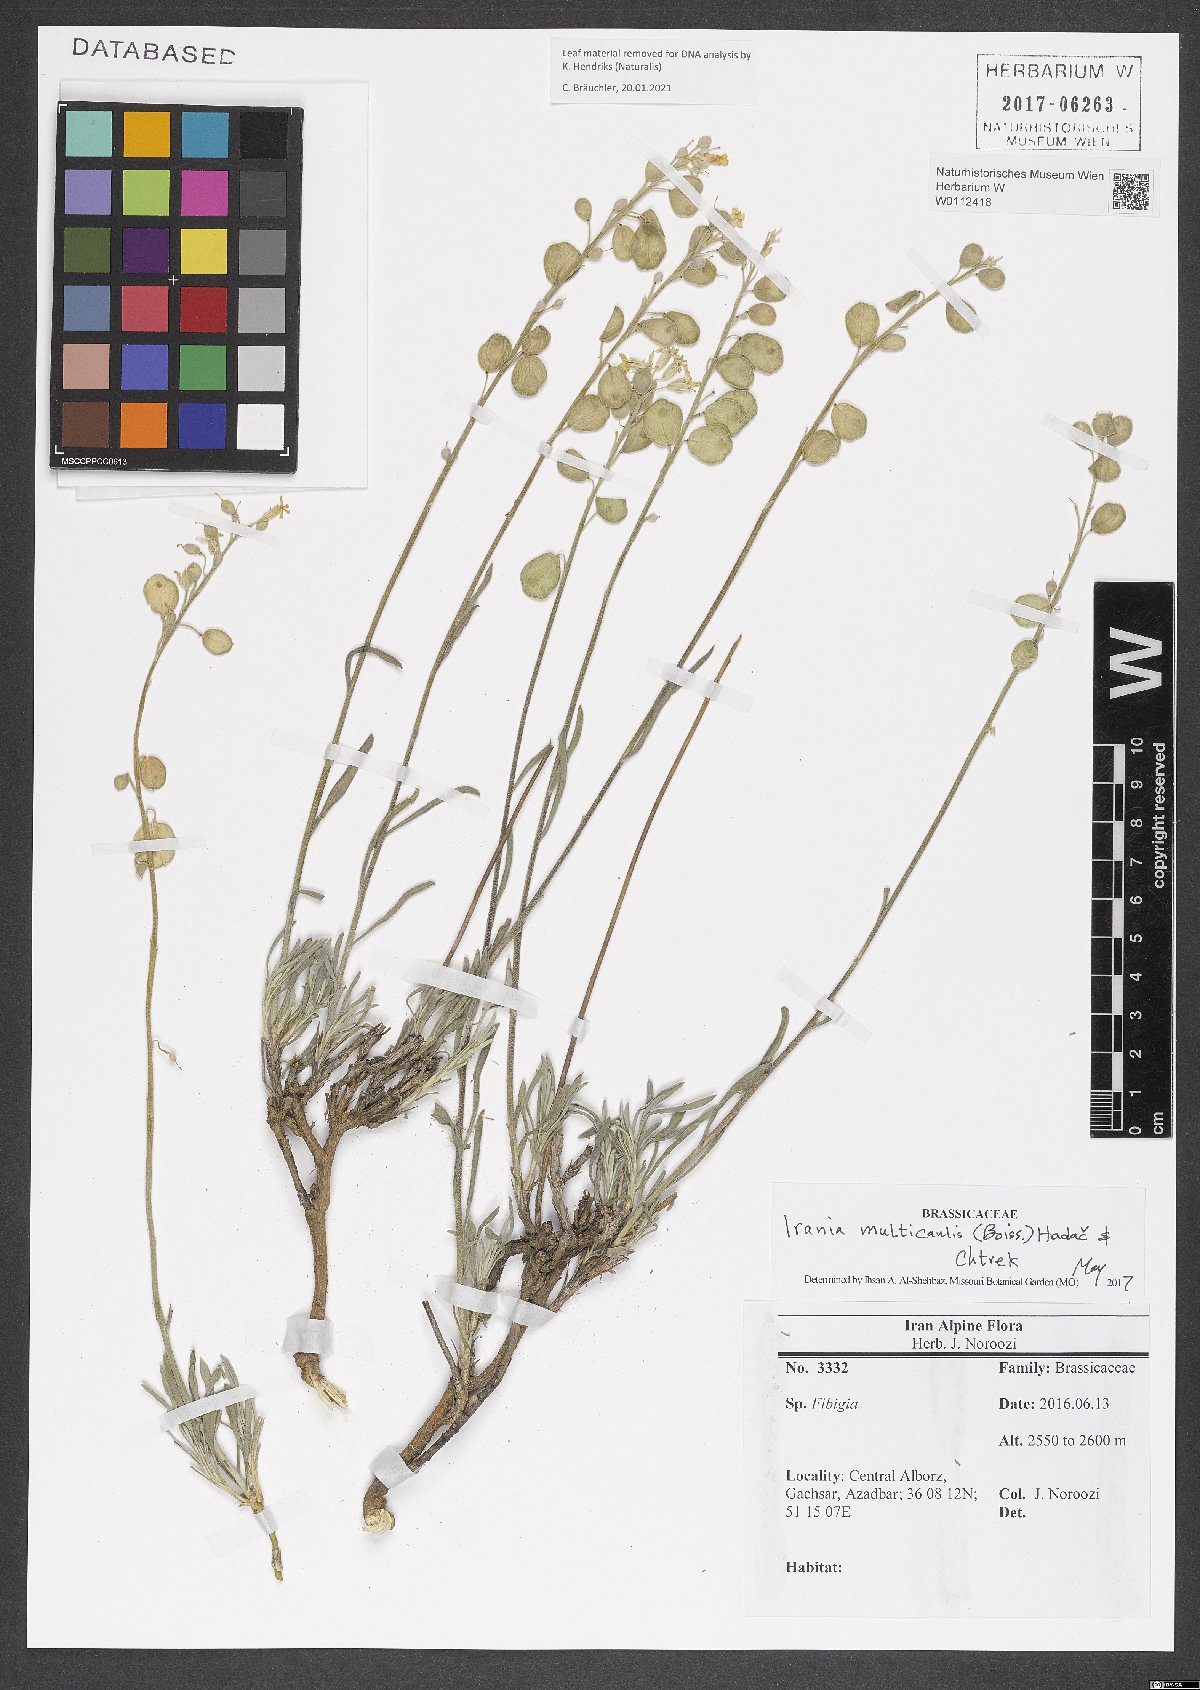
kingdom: Plantae
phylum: Tracheophyta
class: Magnoliopsida
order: Brassicales
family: Brassicaceae
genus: Irania
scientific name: Irania multicaulis
